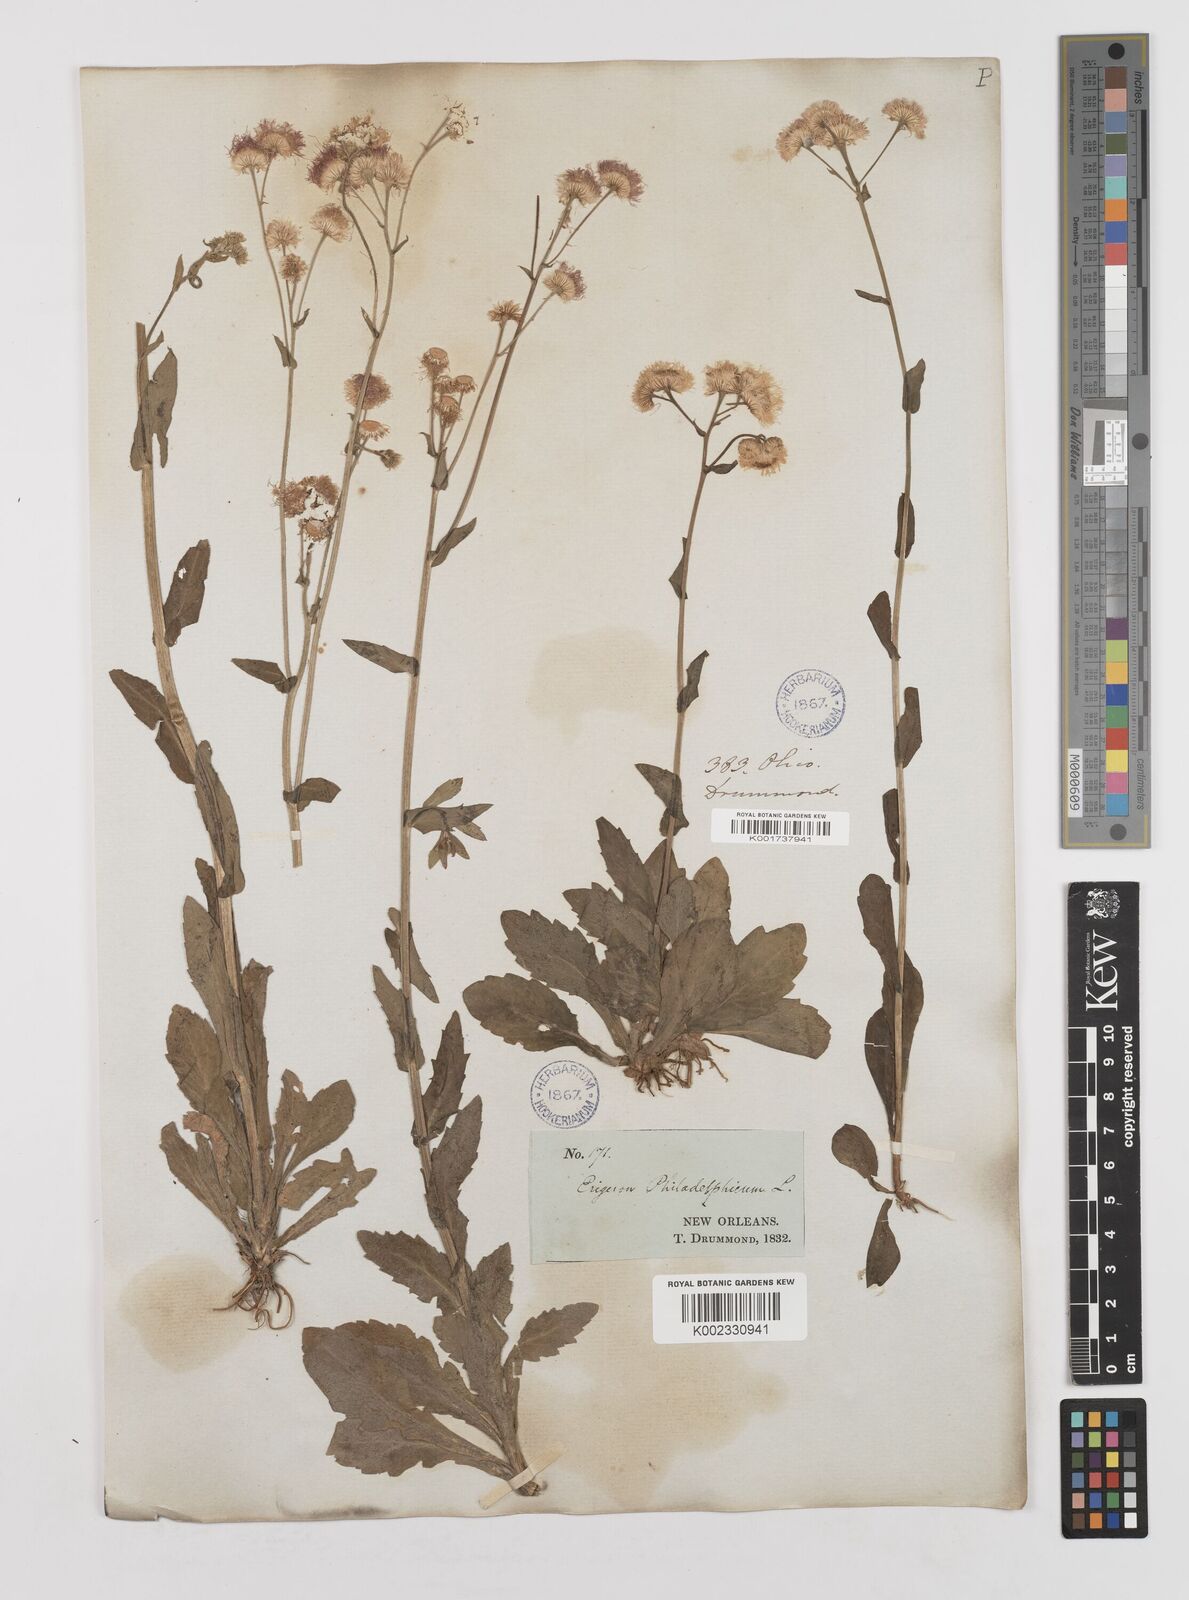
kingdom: Plantae
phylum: Tracheophyta
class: Magnoliopsida
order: Asterales
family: Asteraceae
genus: Erigeron
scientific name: Erigeron philadelphicus
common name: Robin's-plantain
